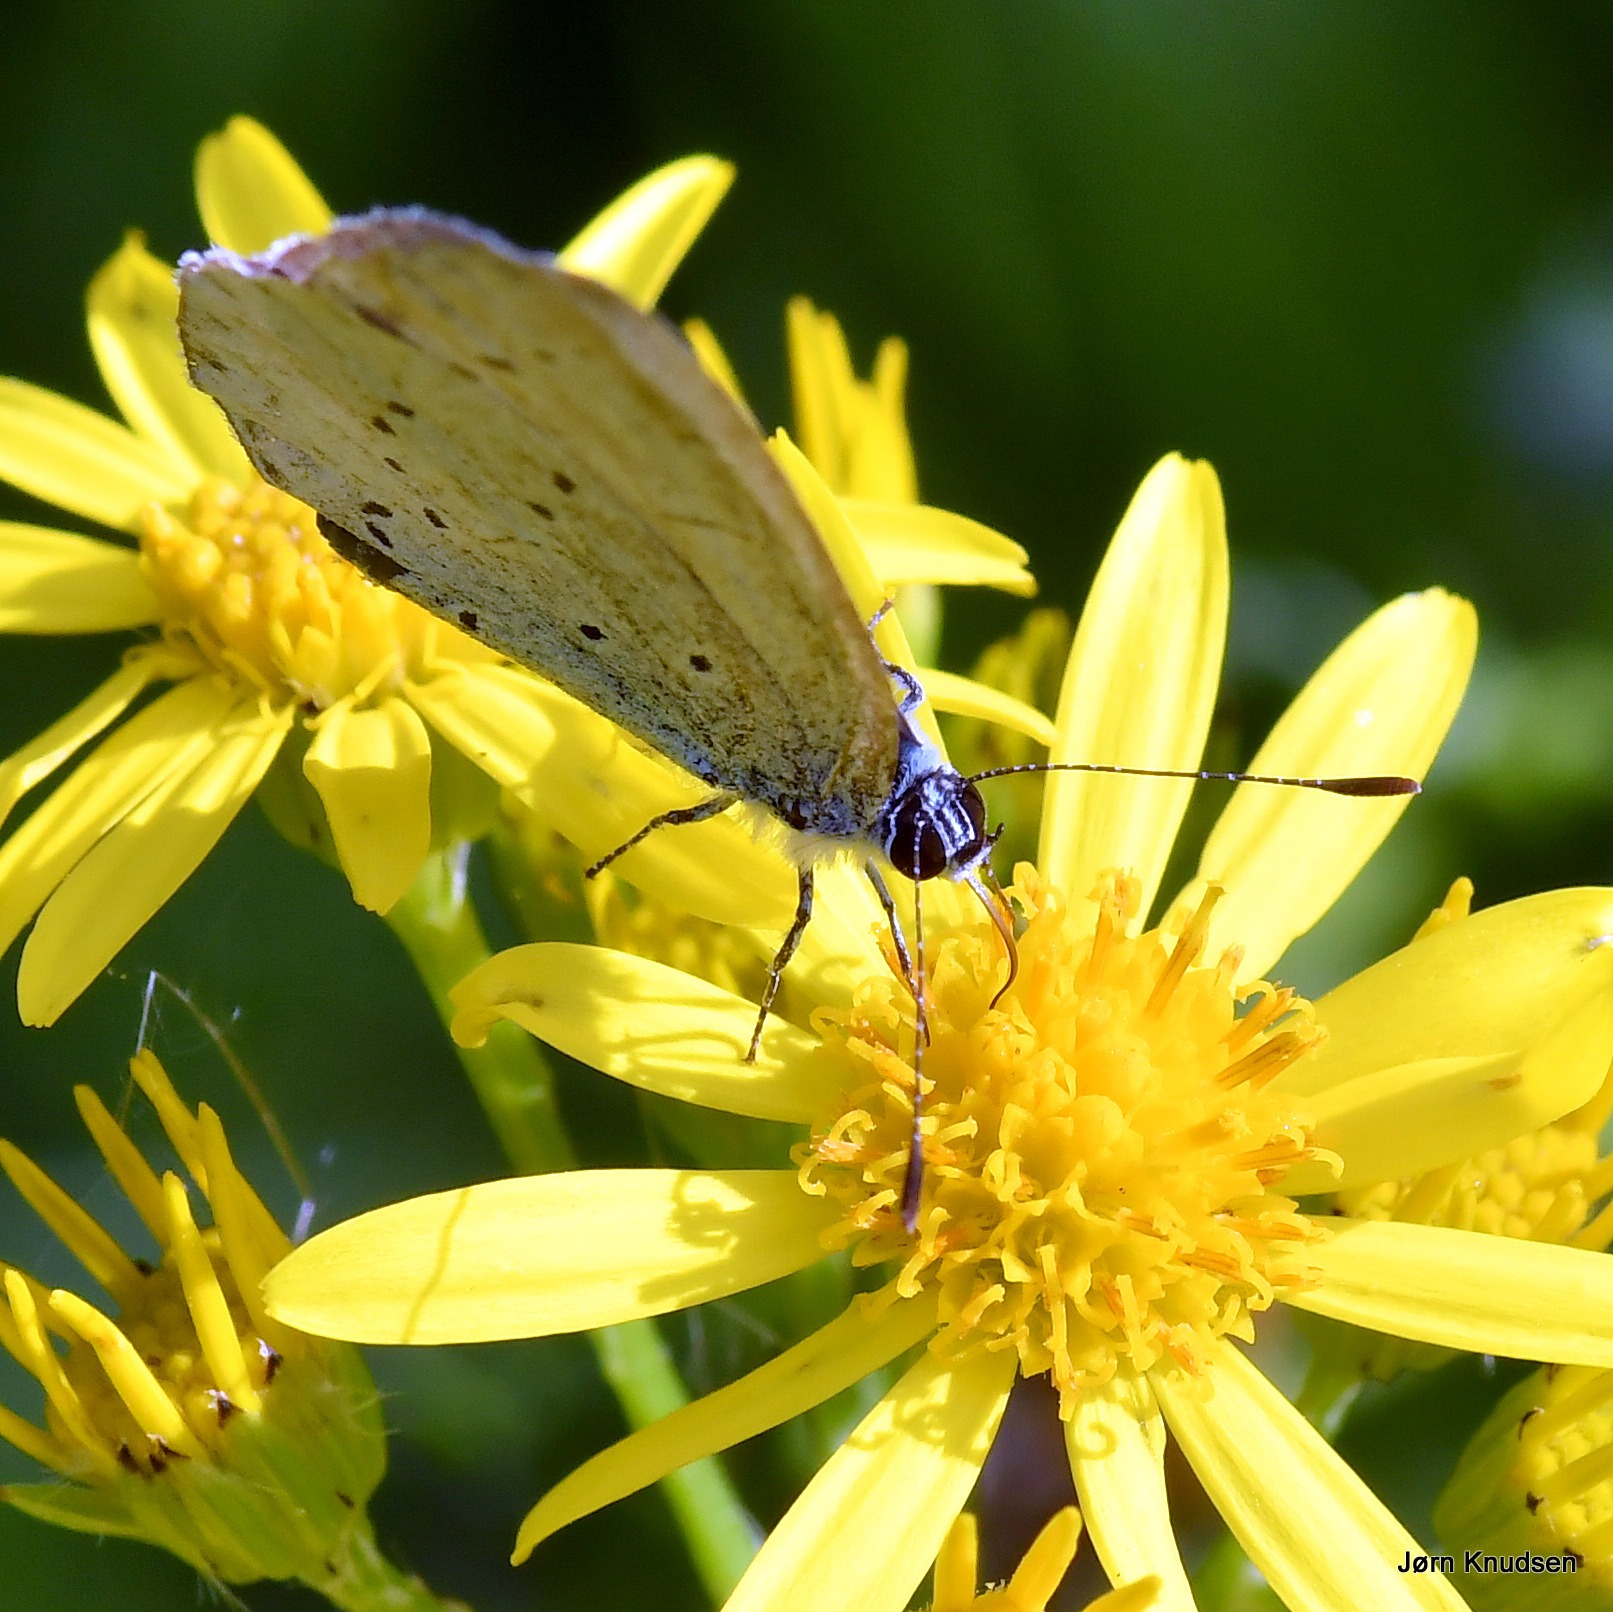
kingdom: Animalia
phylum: Arthropoda
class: Insecta
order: Lepidoptera
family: Lycaenidae
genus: Celastrina
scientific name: Celastrina argiolus
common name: Skovblåfugl
